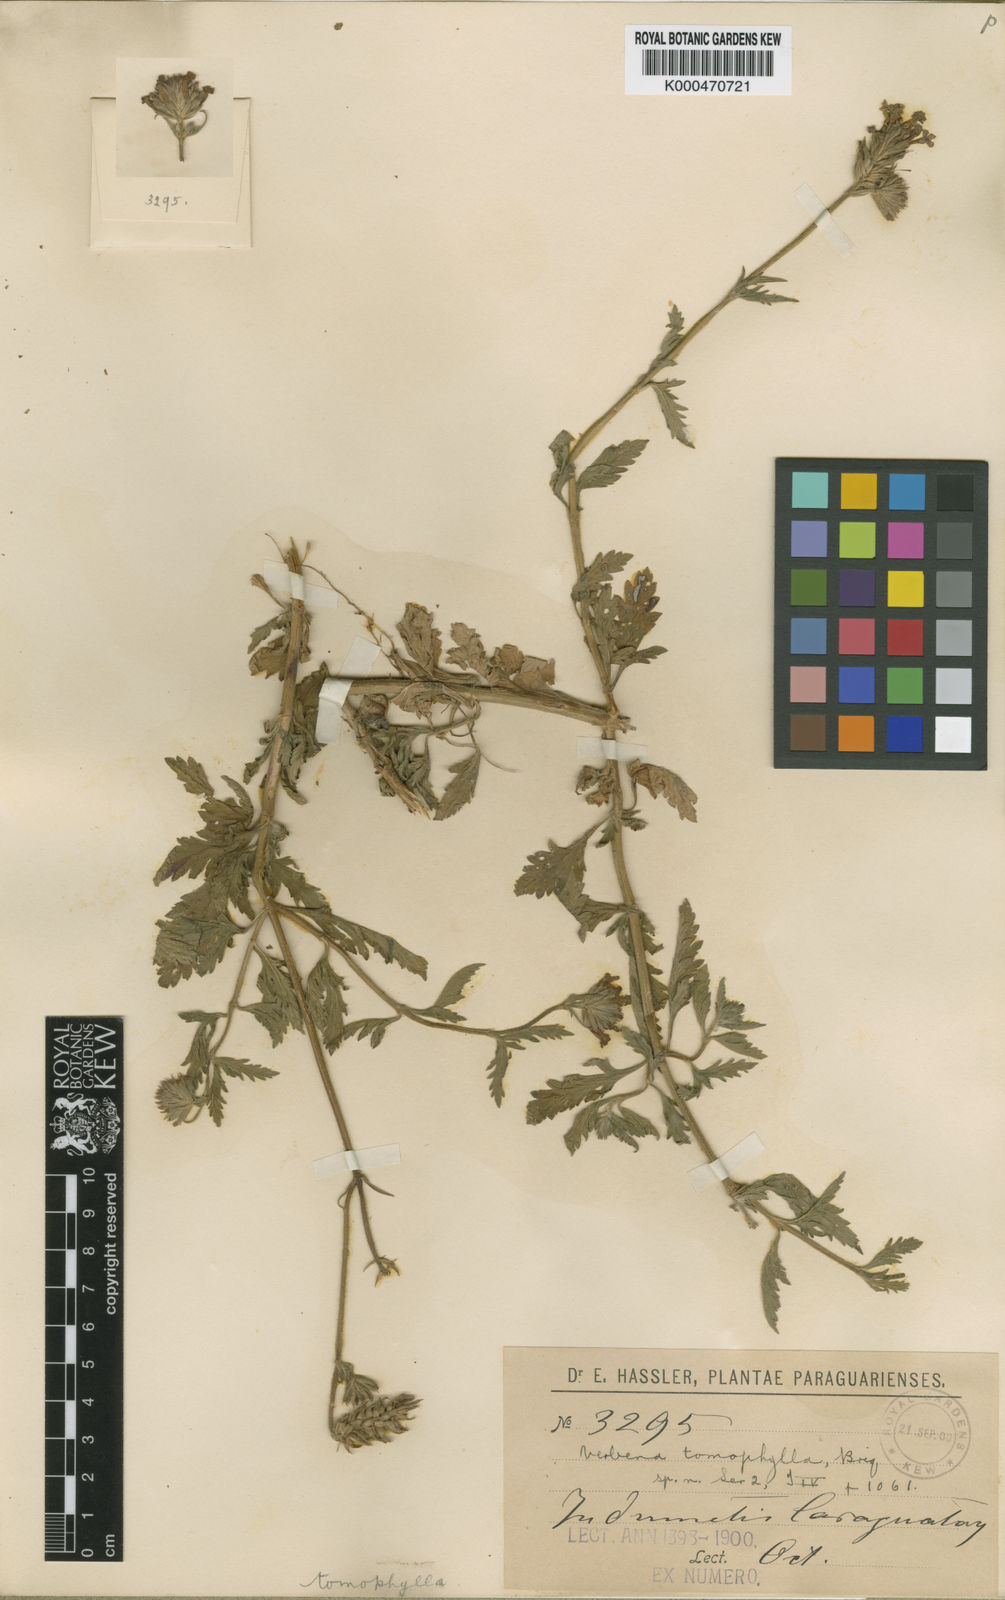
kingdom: Plantae
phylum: Tracheophyta
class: Magnoliopsida
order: Lamiales
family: Verbenaceae
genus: Verbena
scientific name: Verbena tomophylla
